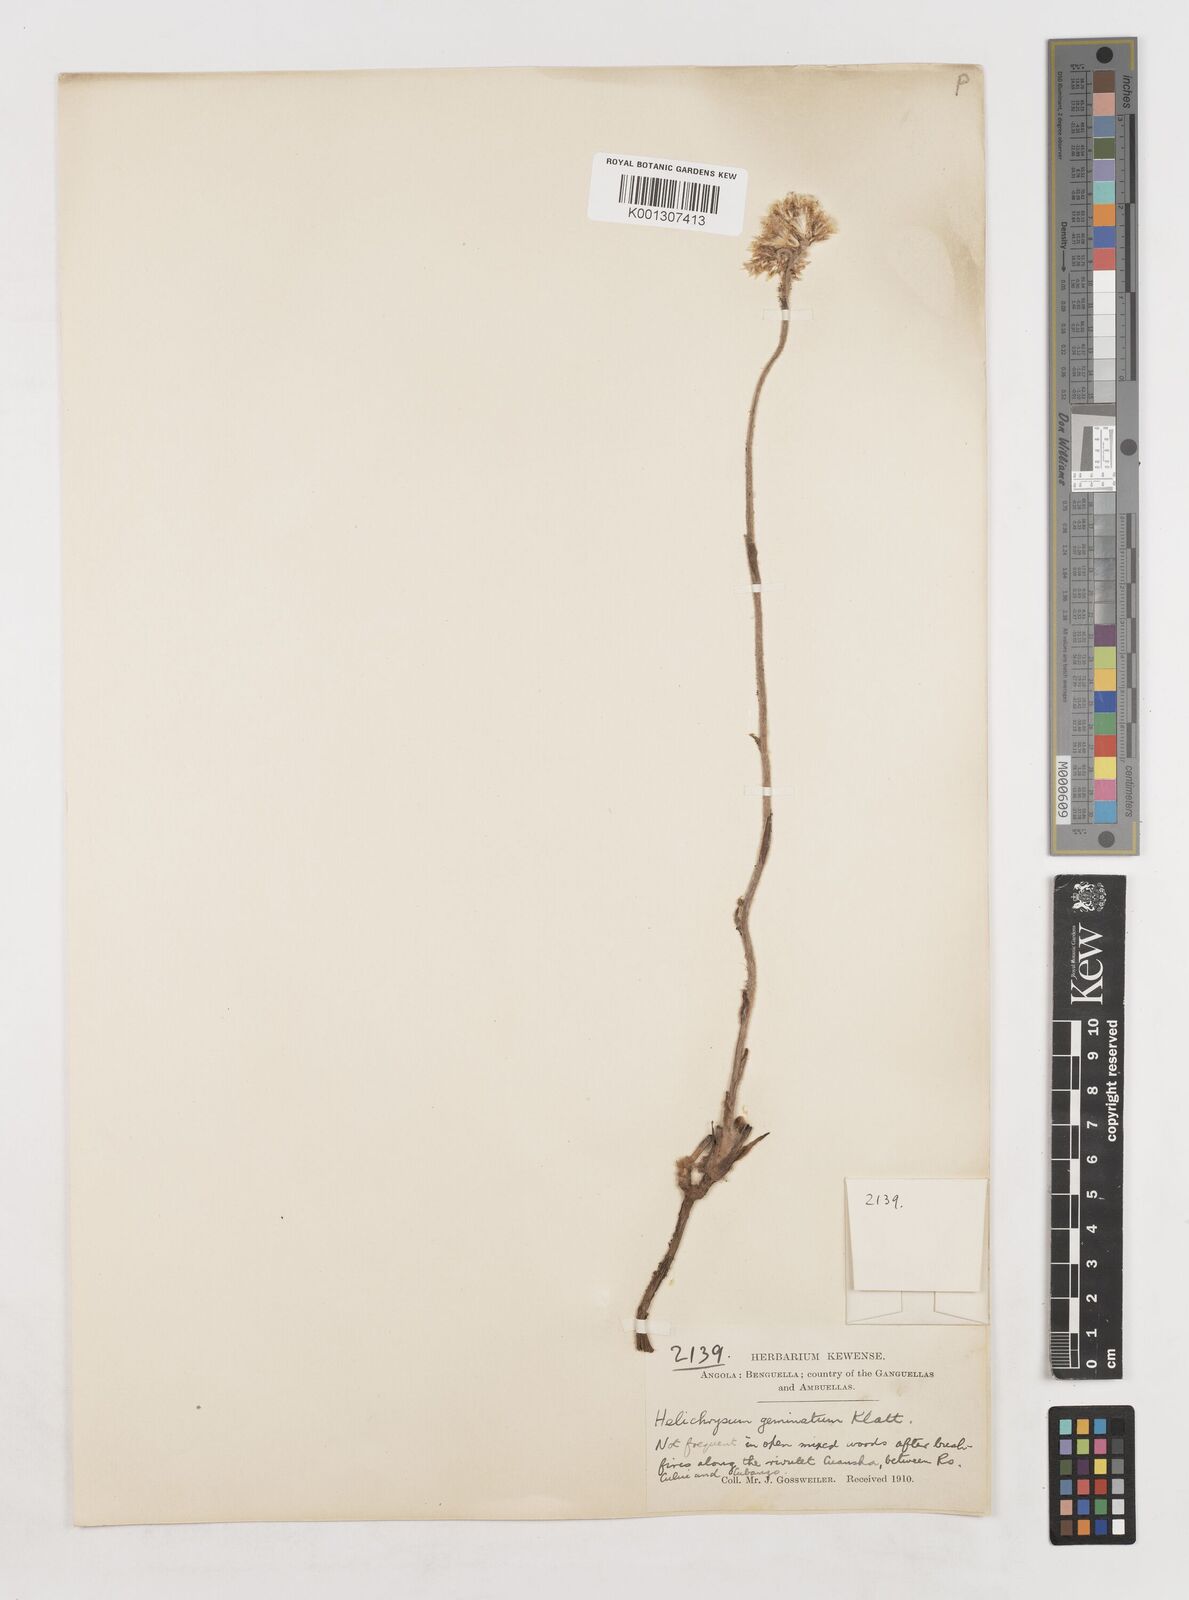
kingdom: Plantae
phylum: Tracheophyta
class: Magnoliopsida
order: Asterales
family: Asteraceae
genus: Helichrysum
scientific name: Helichrysum mechowianum
